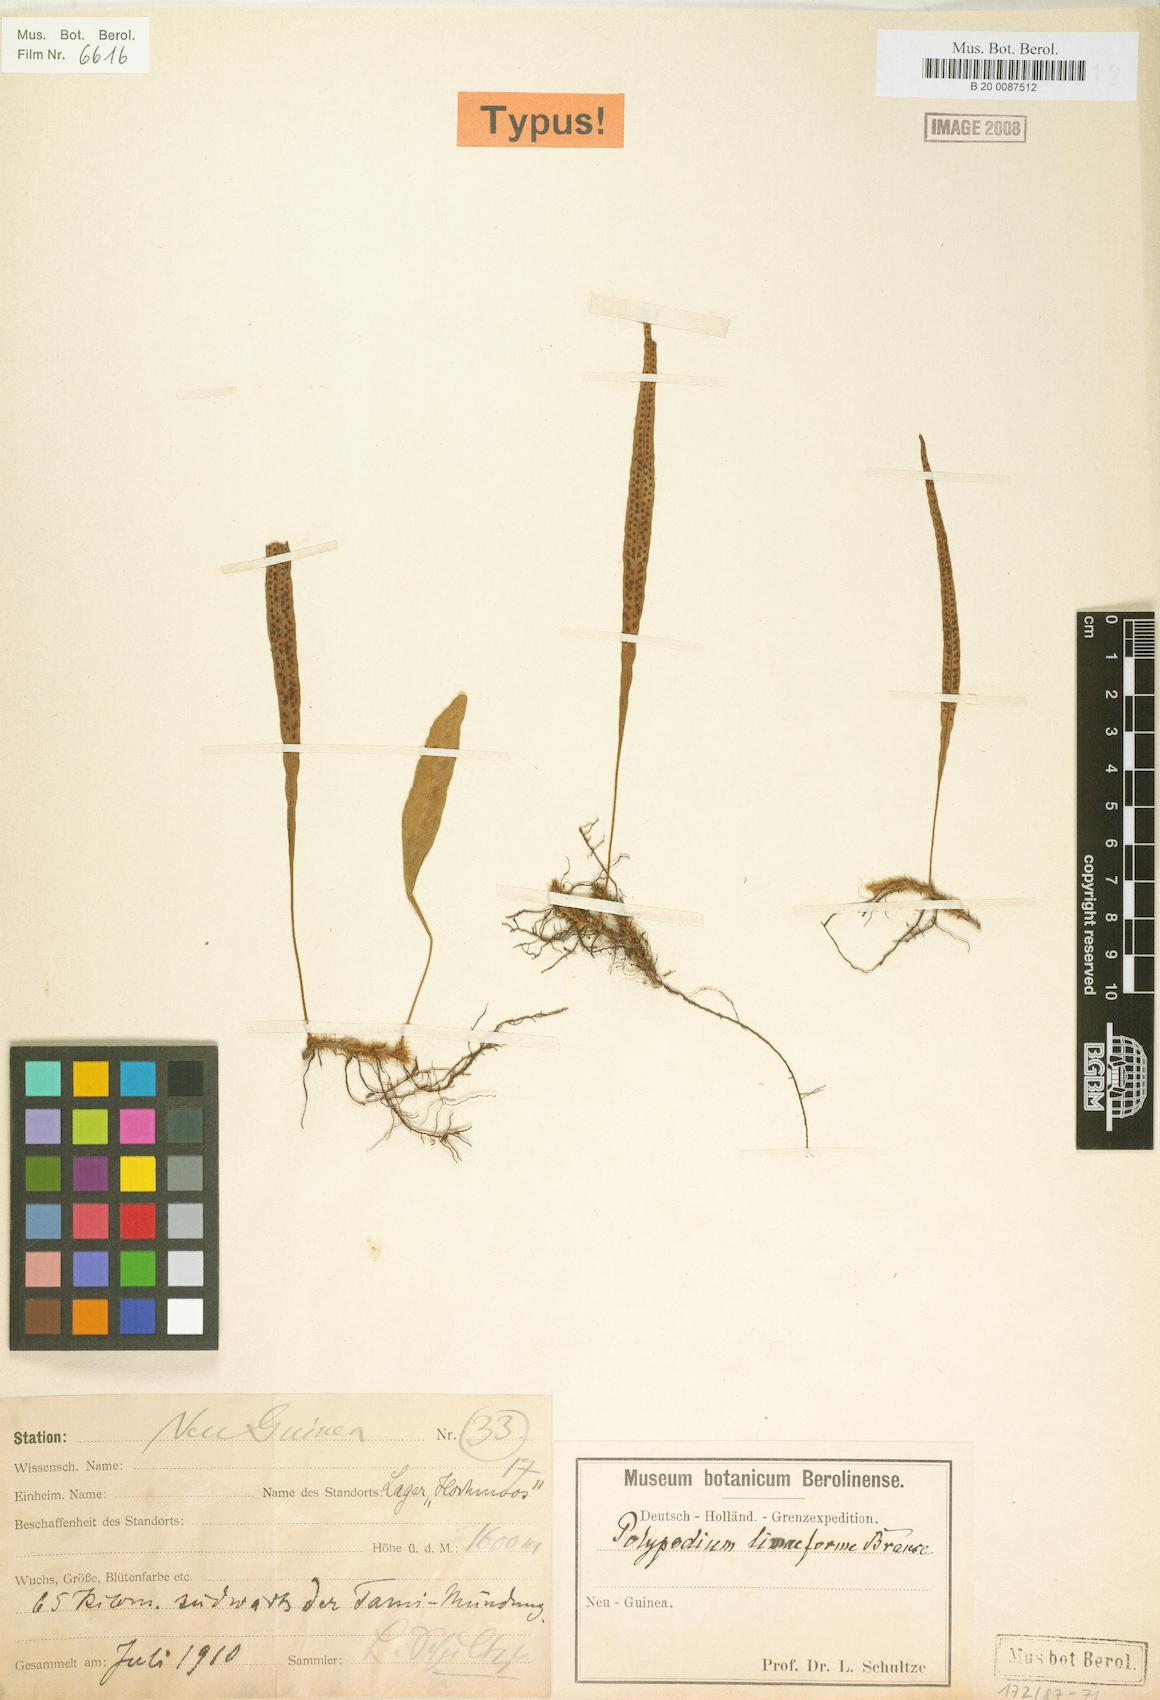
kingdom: Plantae
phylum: Tracheophyta
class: Polypodiopsida
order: Polypodiales
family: Polypodiaceae
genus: Selliguea
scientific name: Selliguea enervis
